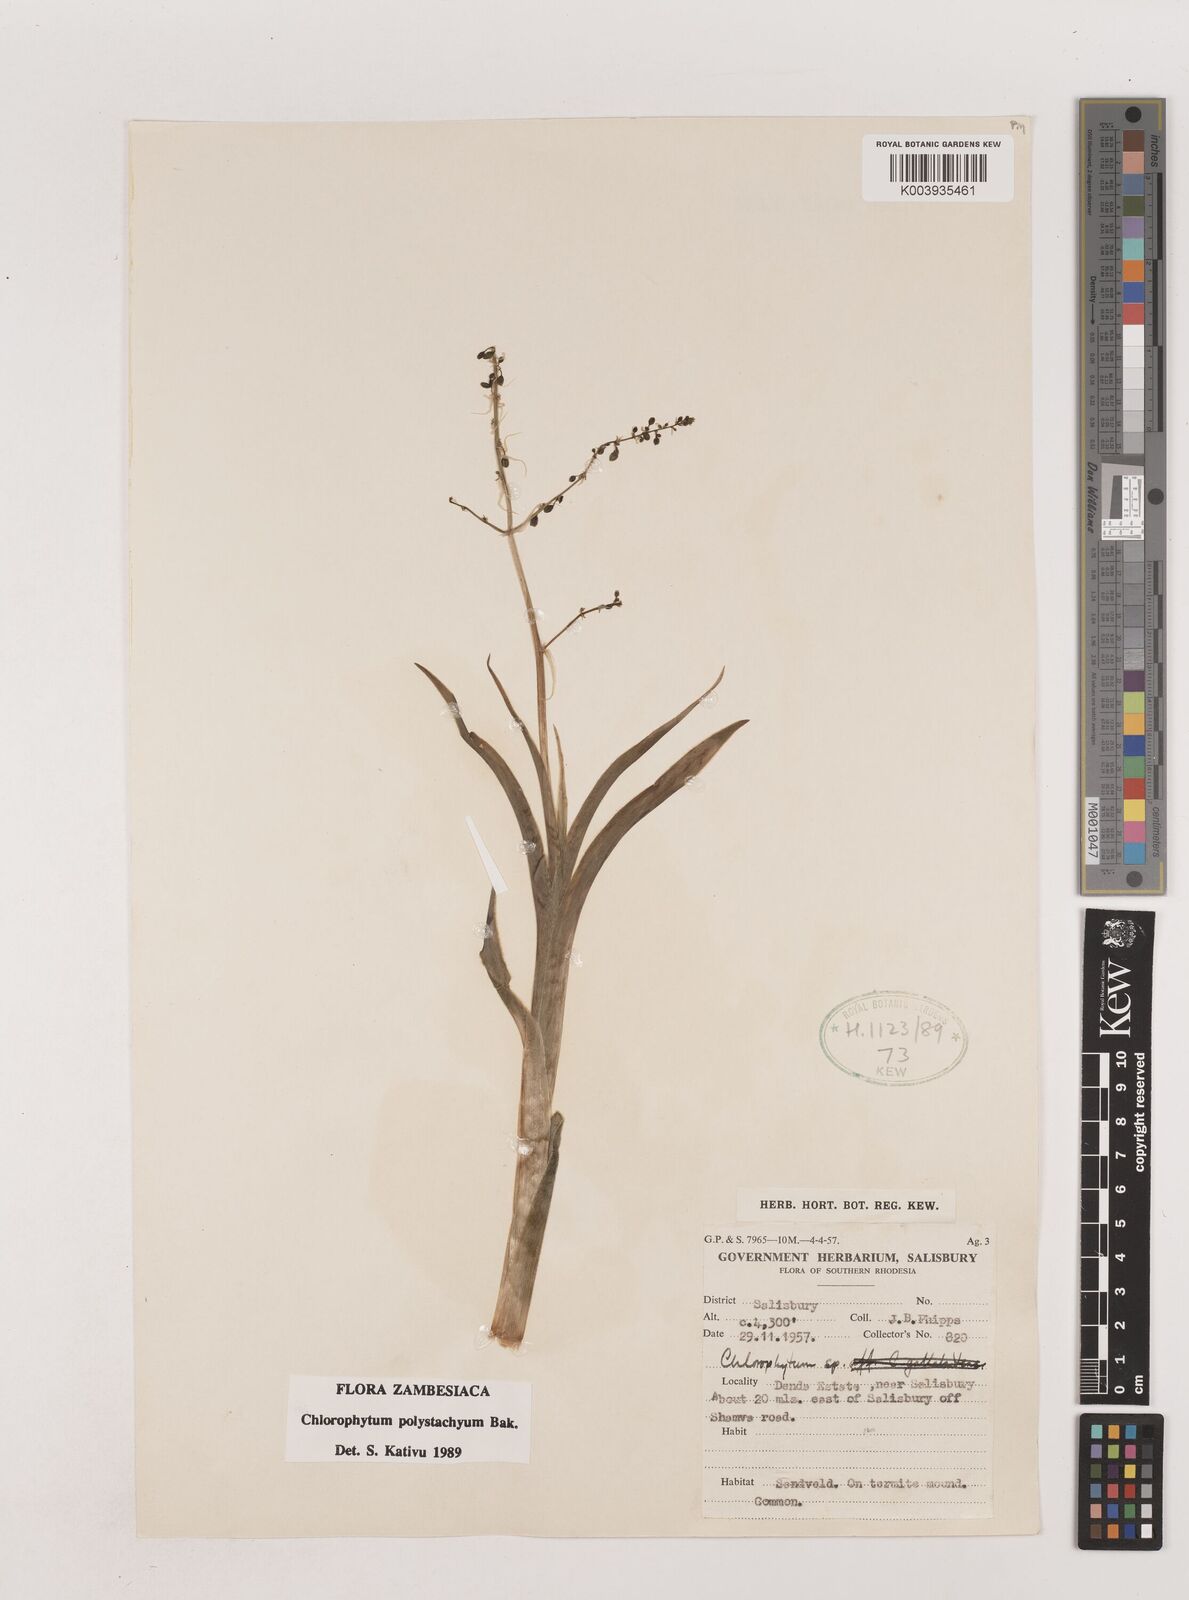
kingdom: Plantae
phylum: Tracheophyta
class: Liliopsida
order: Asparagales
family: Asparagaceae
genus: Chlorophytum
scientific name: Chlorophytum polystachys
